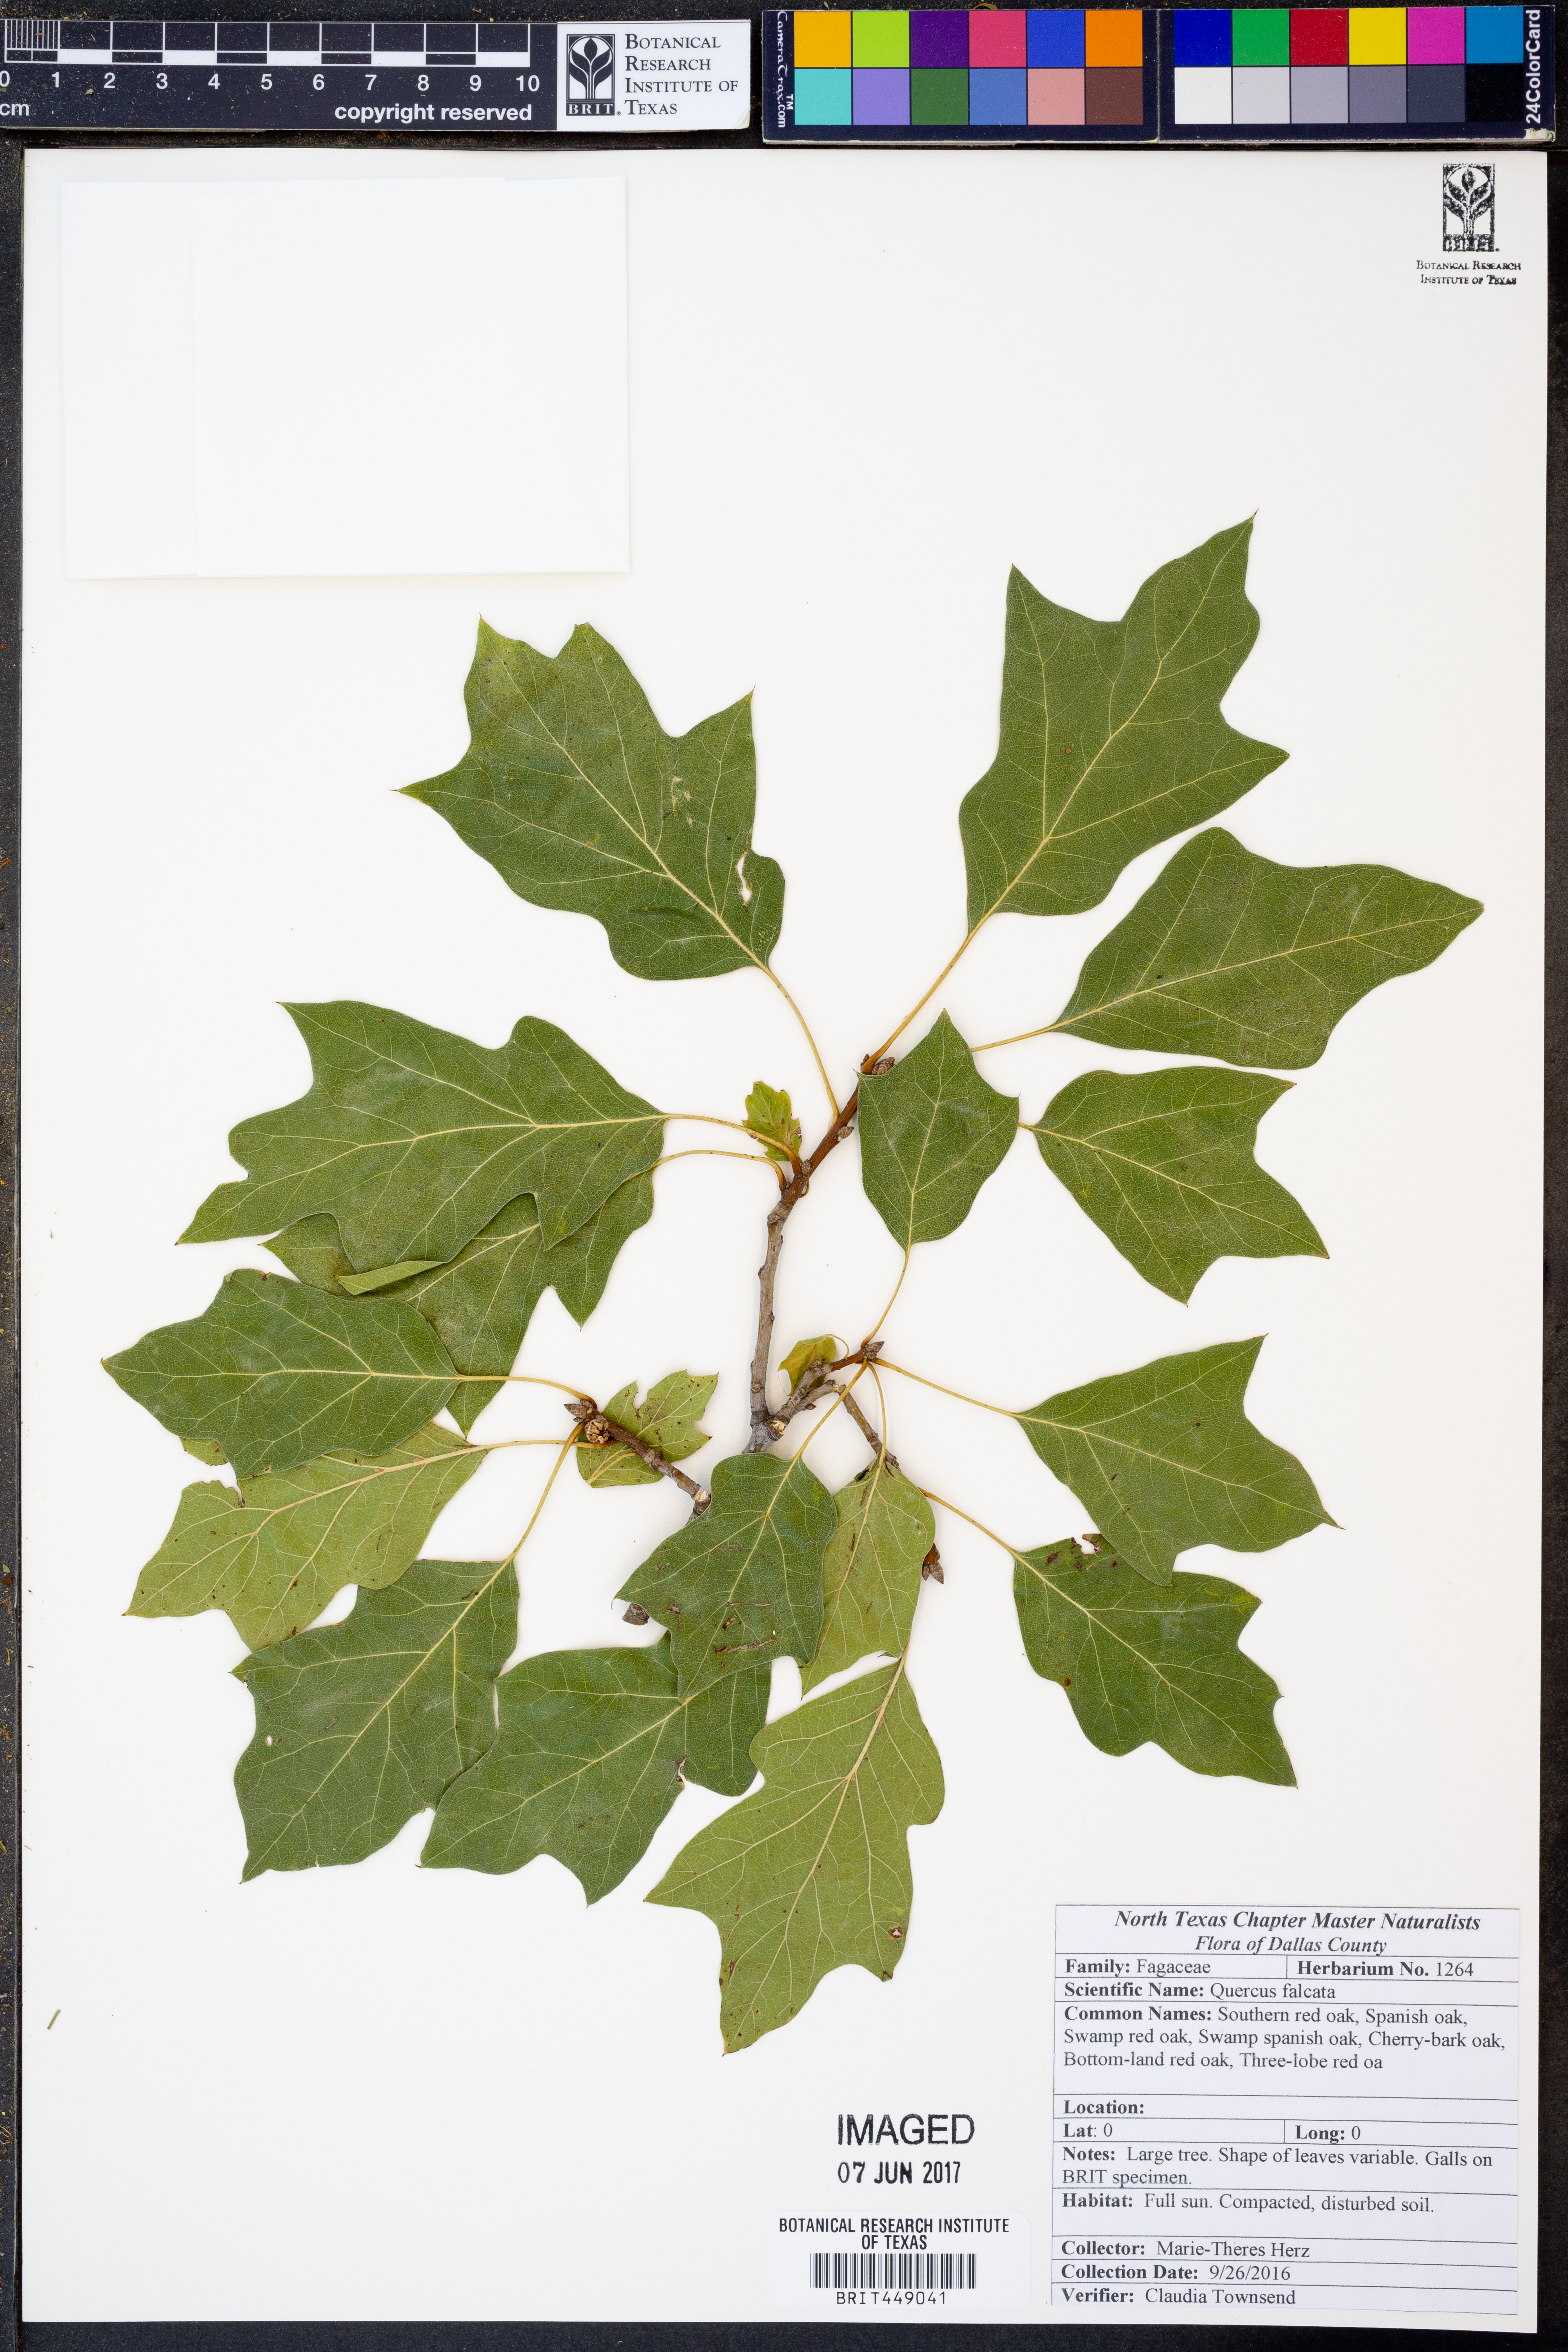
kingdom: Plantae
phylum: Tracheophyta
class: Magnoliopsida
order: Fagales
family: Fagaceae
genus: Quercus
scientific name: Quercus falcata
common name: Southern red oak
